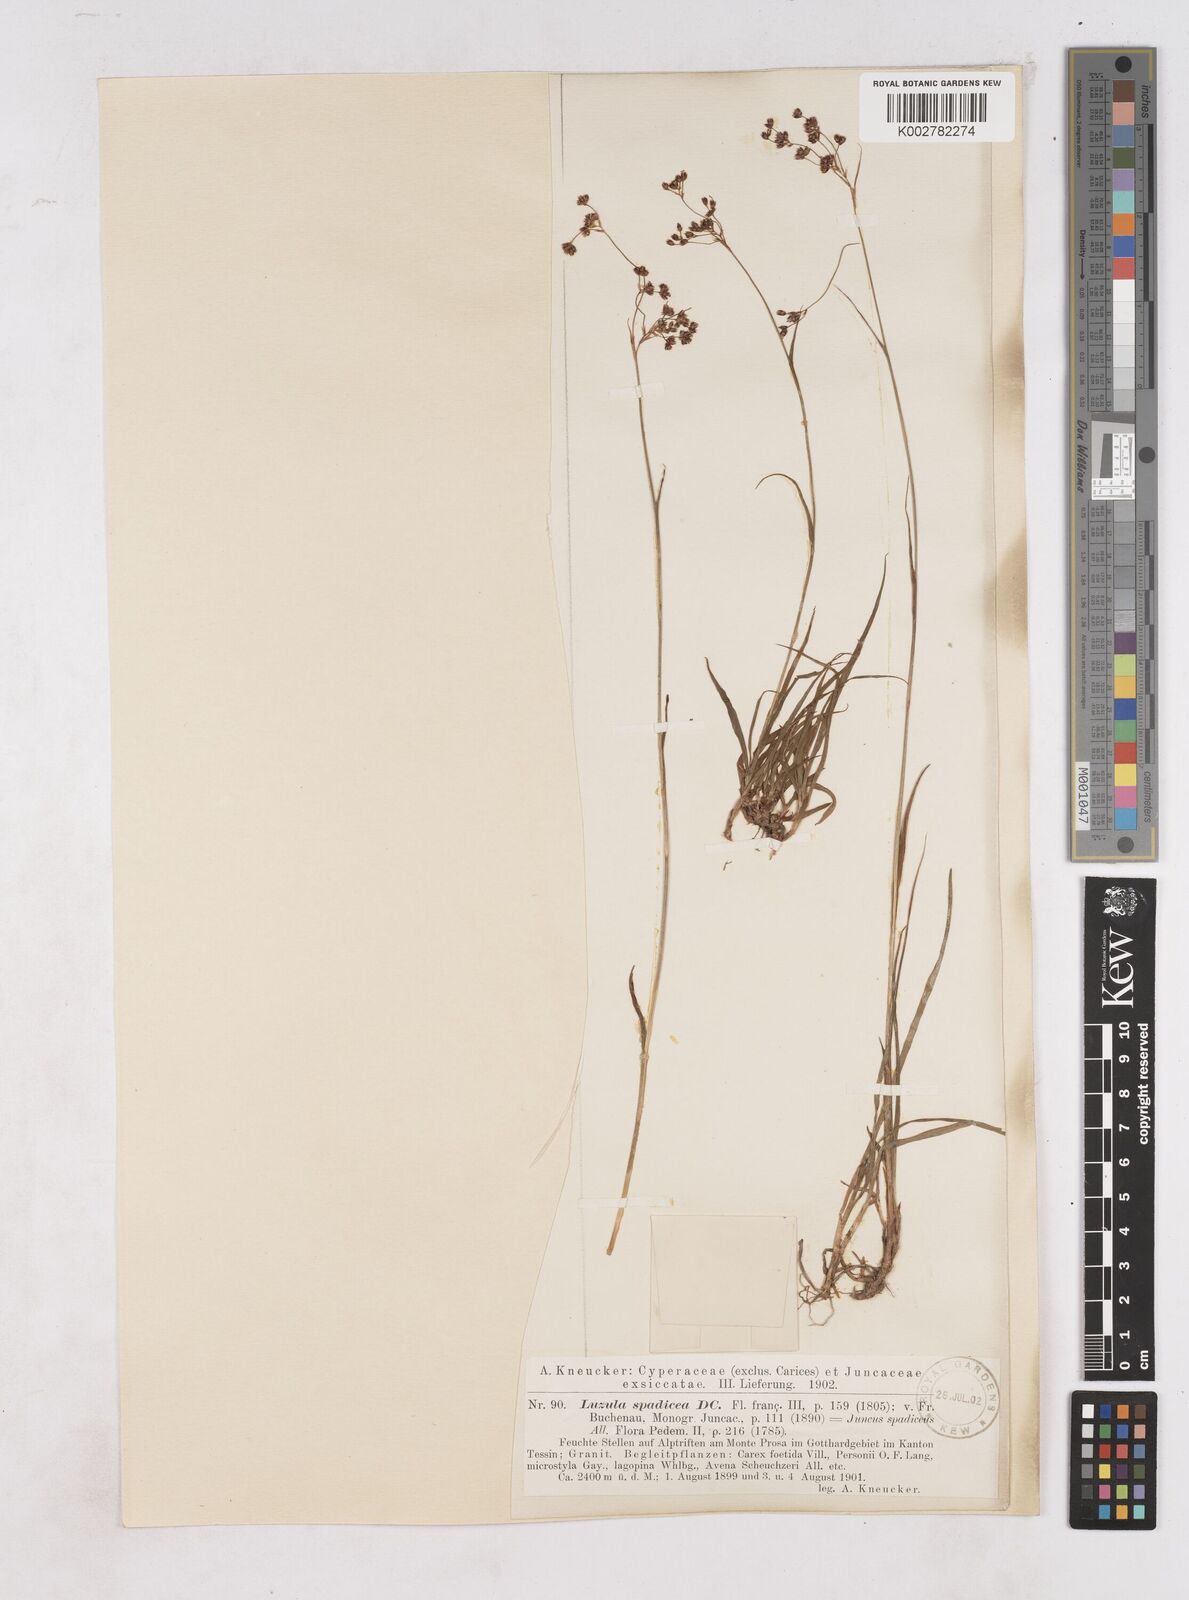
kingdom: Plantae
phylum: Tracheophyta
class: Liliopsida
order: Poales
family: Juncaceae
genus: Luzula
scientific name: Luzula alpinopilosa
